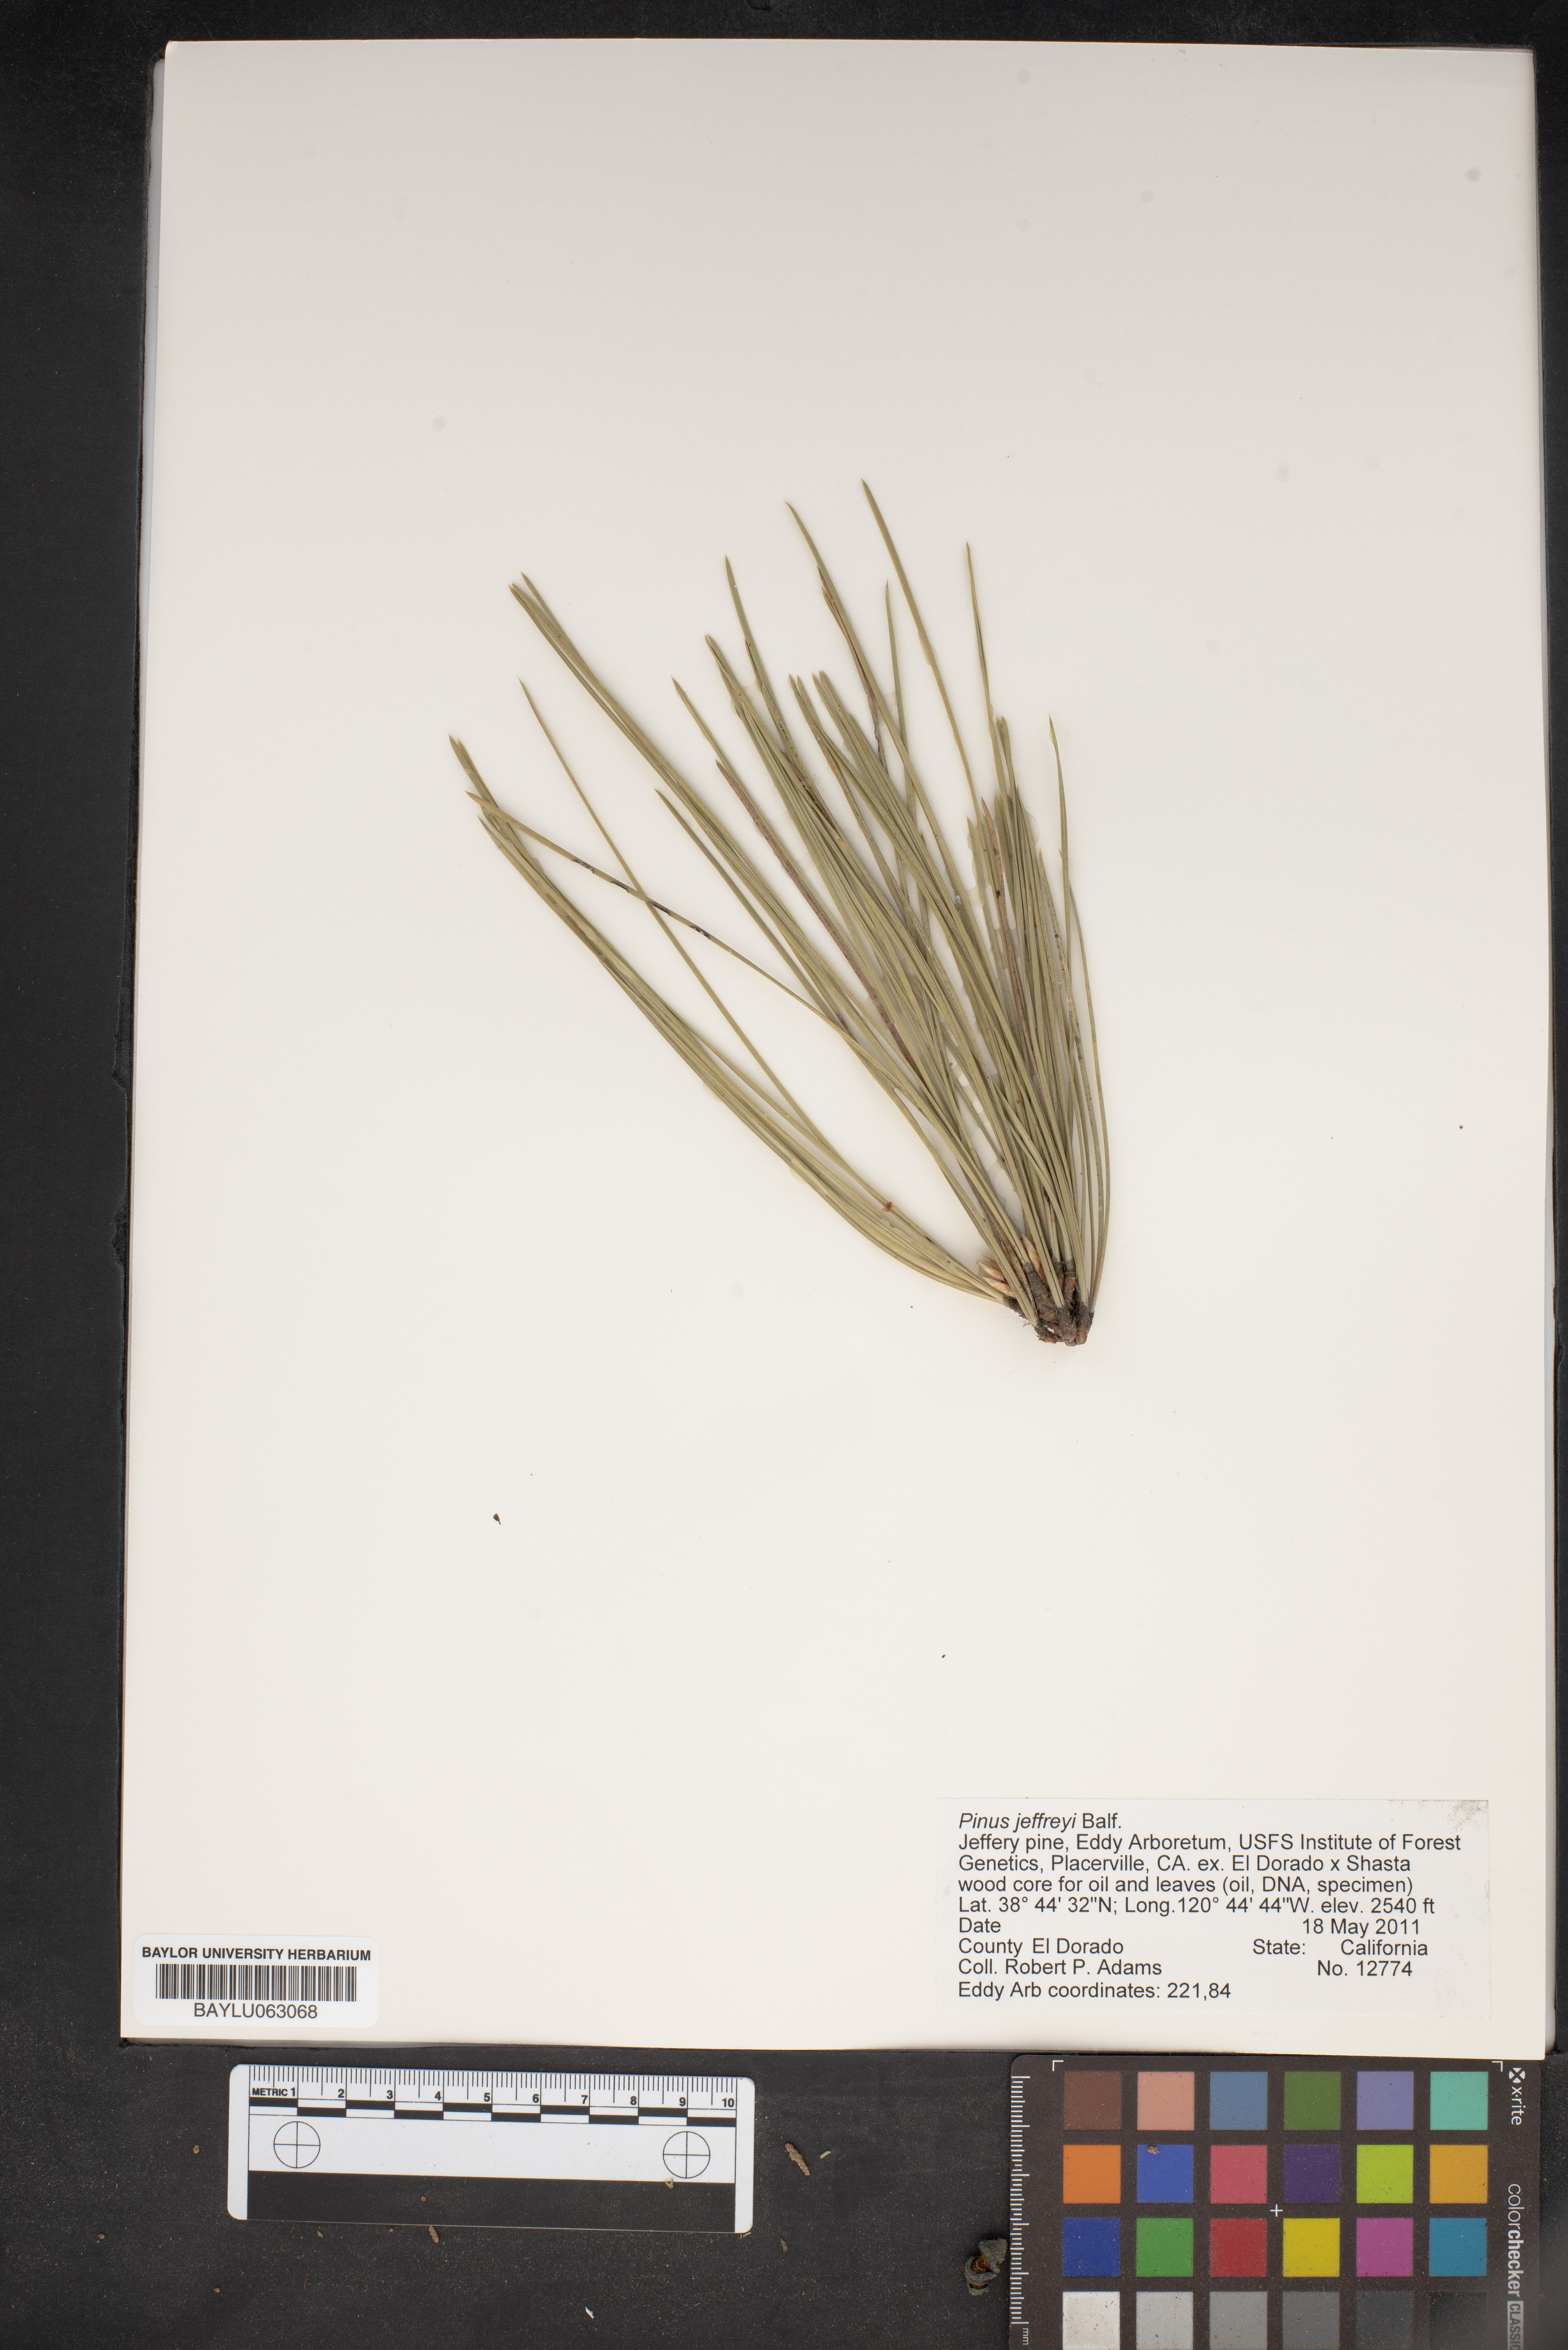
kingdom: Plantae
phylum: Tracheophyta
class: Pinopsida
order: Pinales
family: Pinaceae
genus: Pinus
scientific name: Pinus jeffreyi
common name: Jeffrey pine
